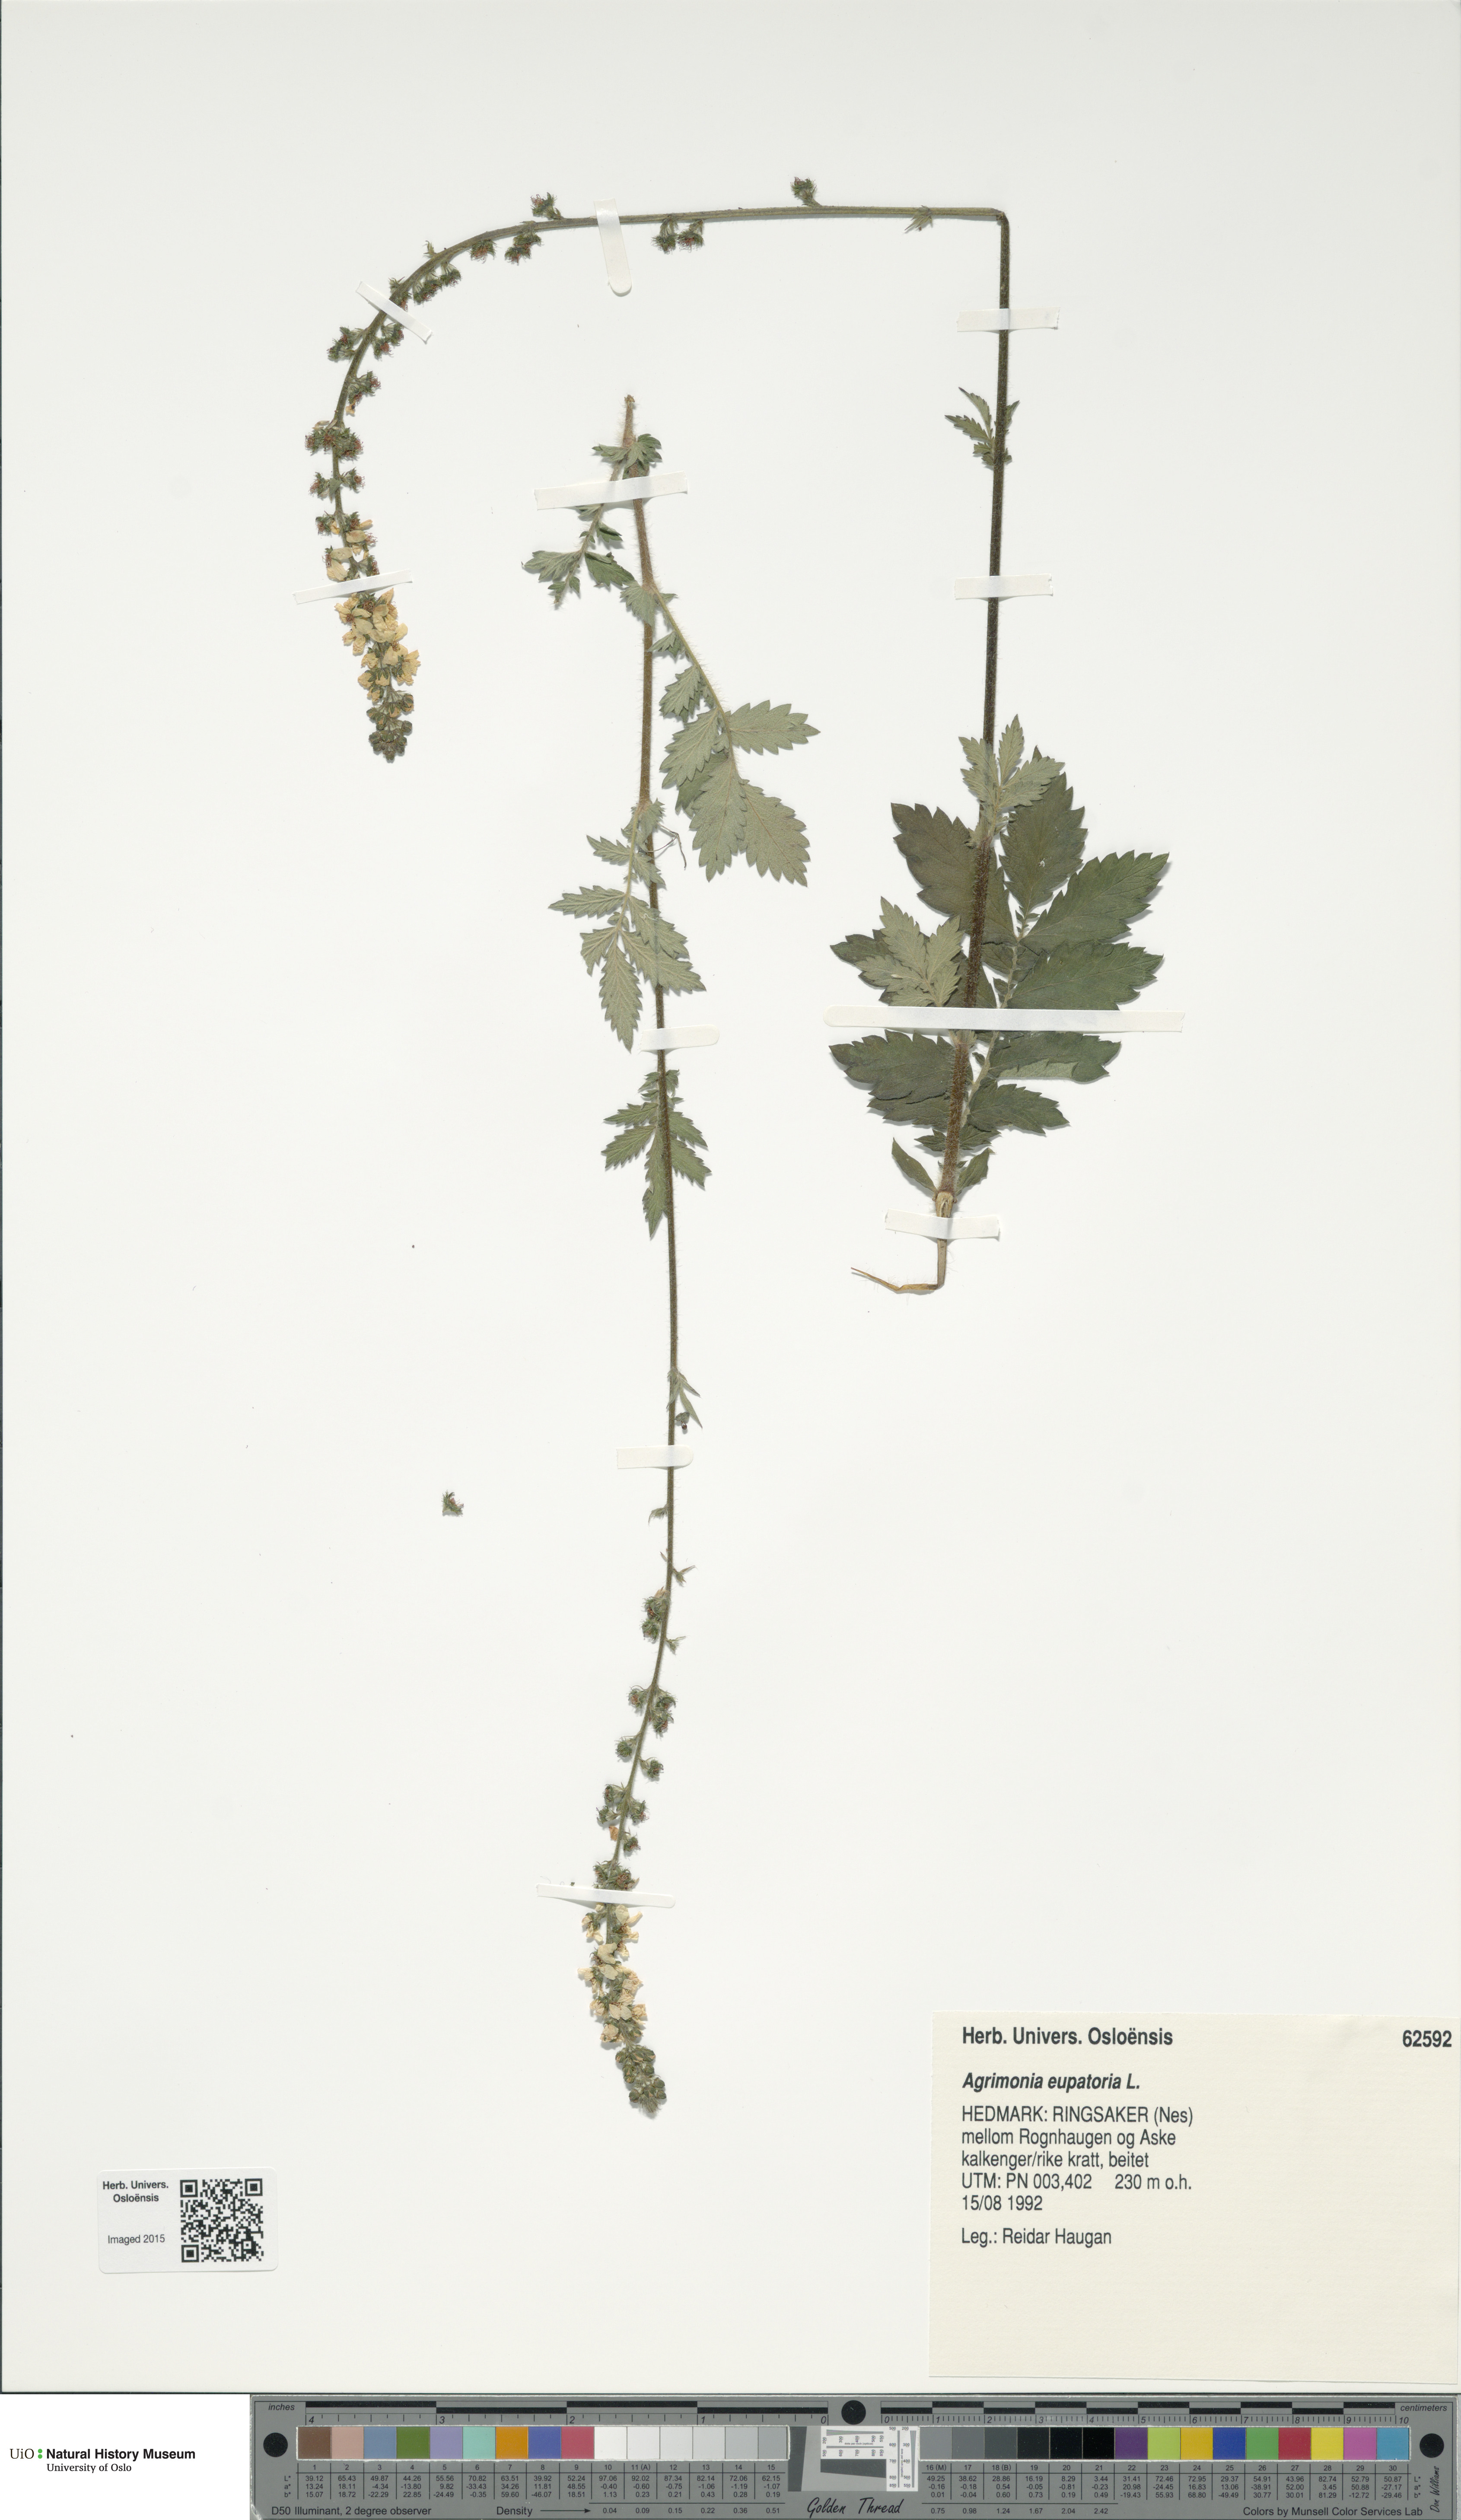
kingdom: Plantae
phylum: Tracheophyta
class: Magnoliopsida
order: Rosales
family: Rosaceae
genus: Agrimonia
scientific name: Agrimonia eupatoria
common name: Agrimony
